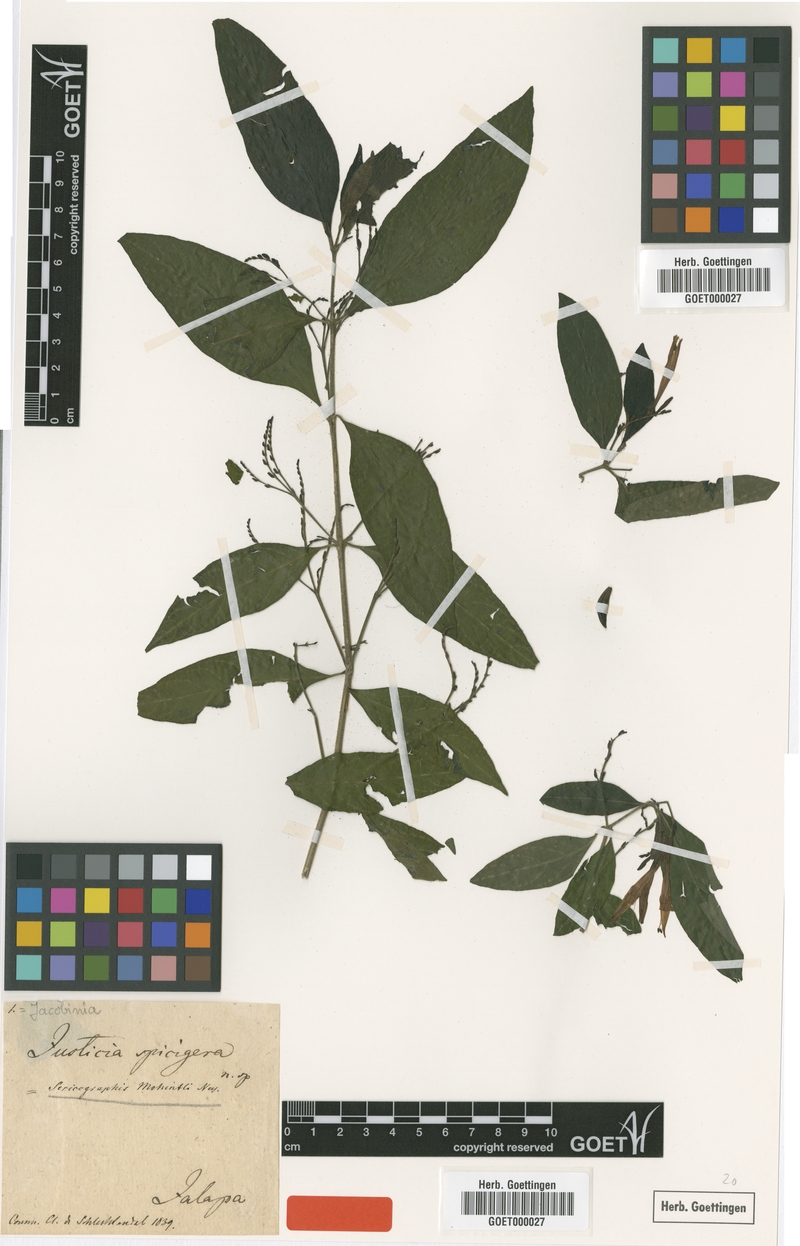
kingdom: Plantae
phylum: Tracheophyta
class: Magnoliopsida
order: Lamiales
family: Acanthaceae
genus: Justicia
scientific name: Justicia spicigera
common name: Mohintli
